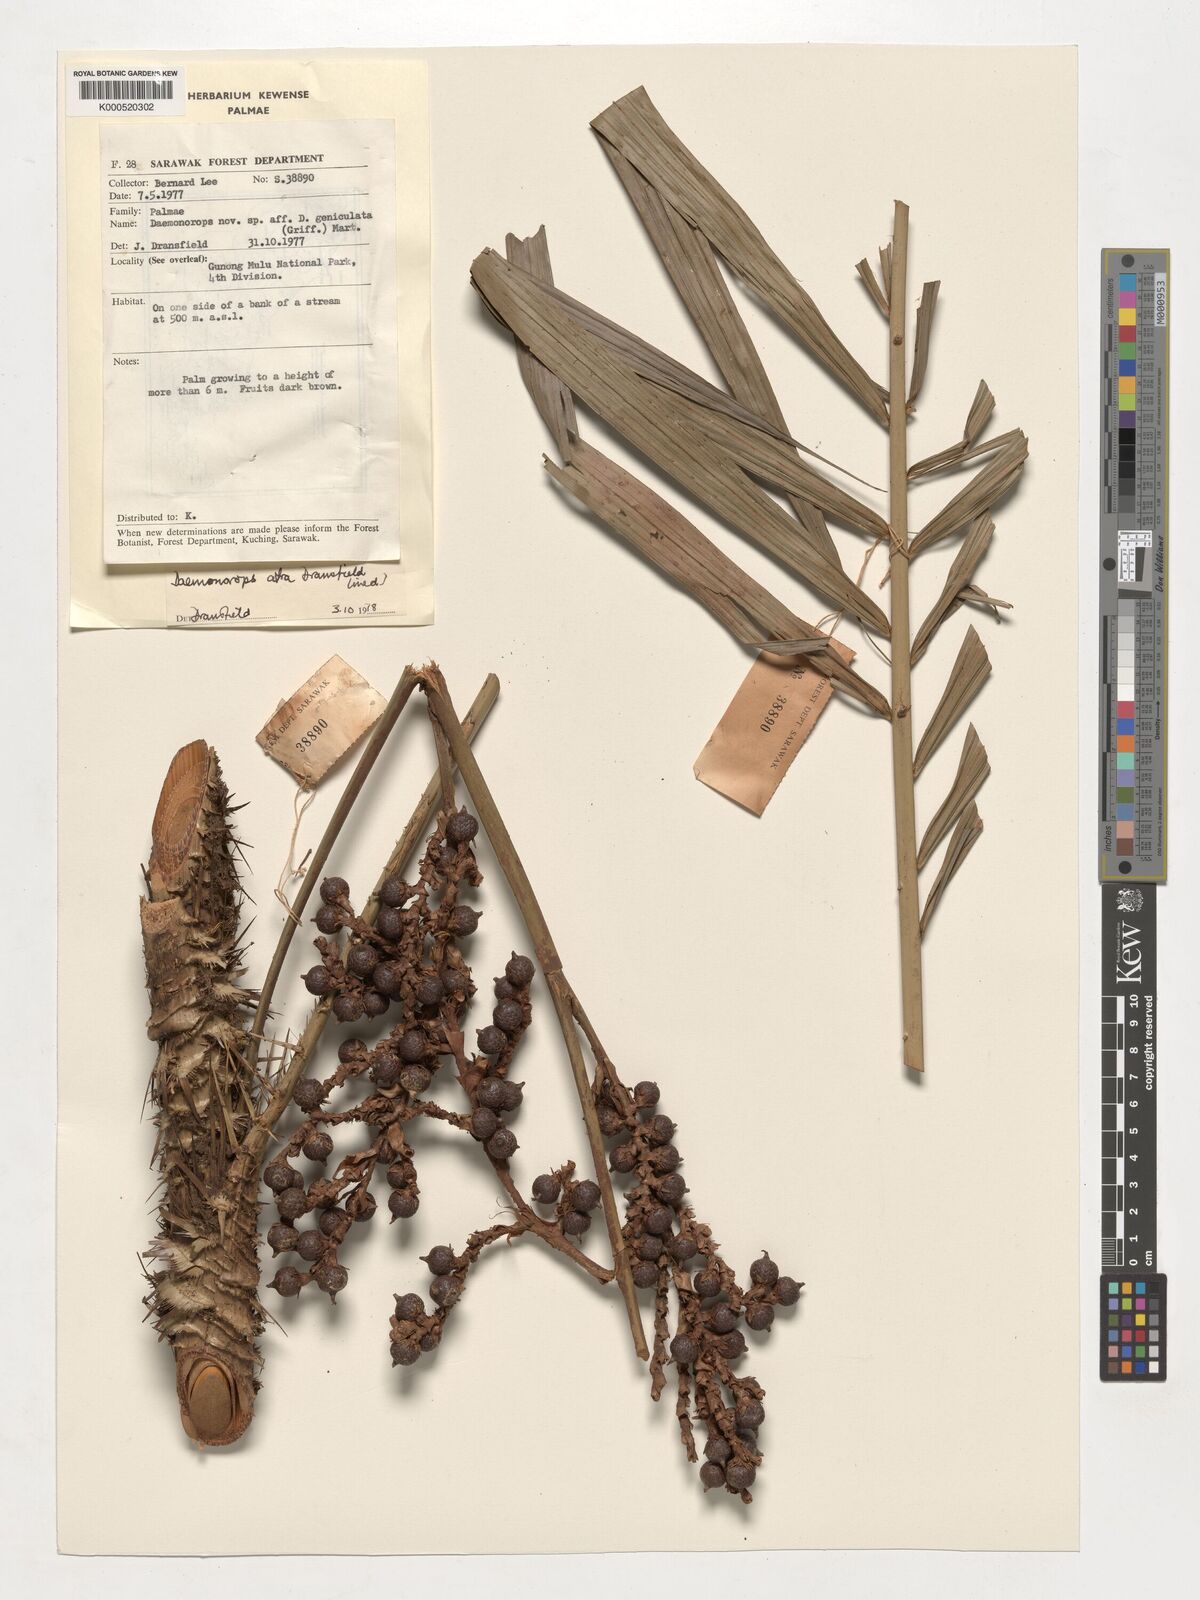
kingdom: Plantae
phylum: Tracheophyta
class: Liliopsida
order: Arecales
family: Arecaceae
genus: Calamus
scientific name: Calamus ater
